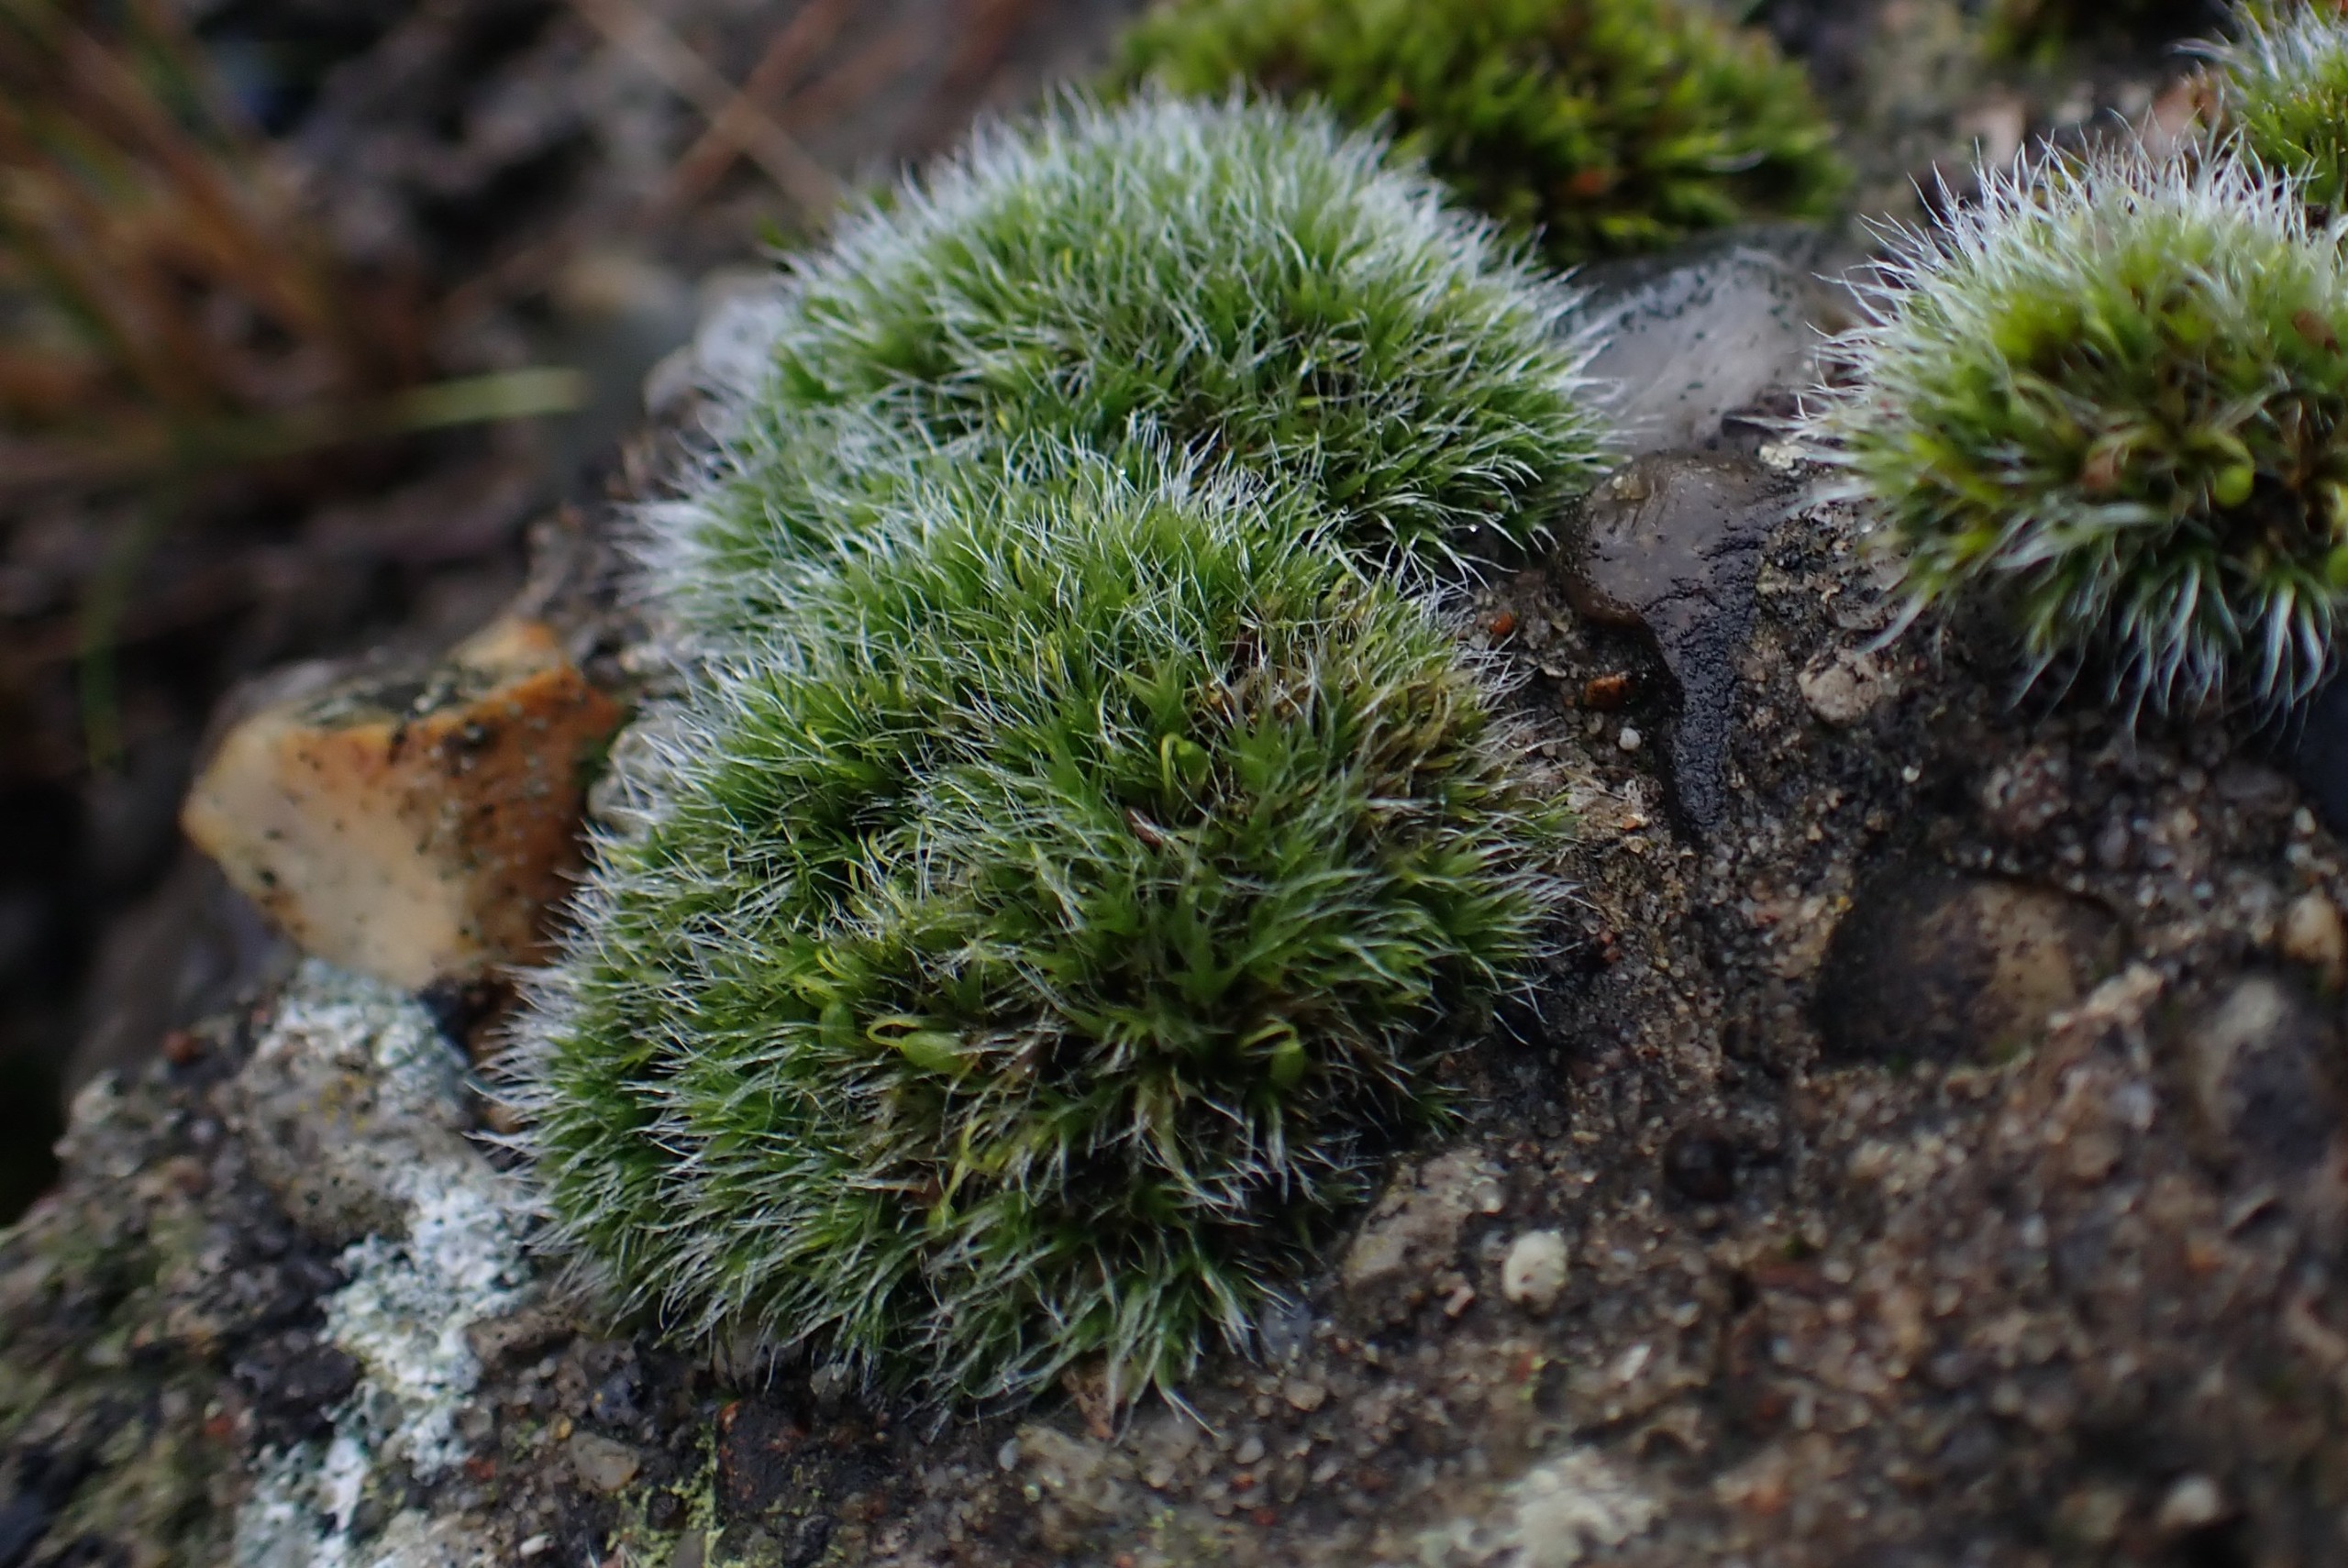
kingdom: Plantae
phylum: Bryophyta
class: Bryopsida
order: Grimmiales
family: Grimmiaceae
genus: Grimmia
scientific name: Grimmia pulvinata
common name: Pude-gråmos
